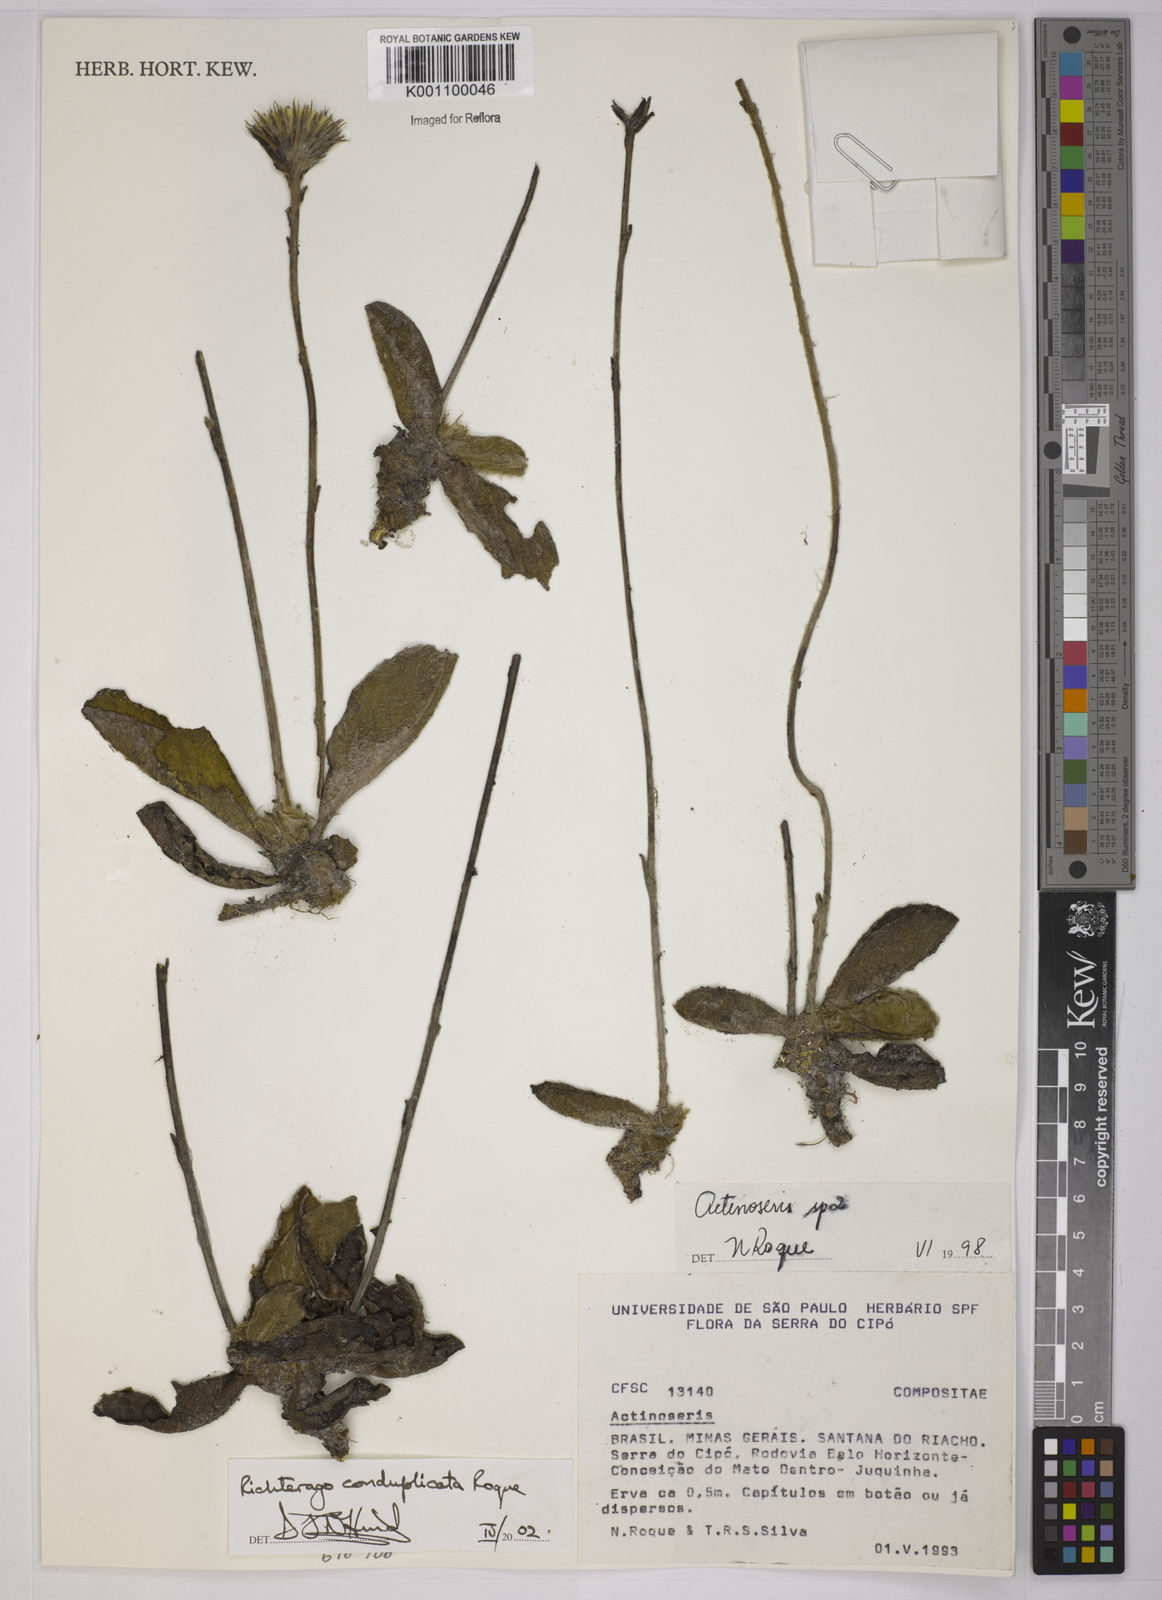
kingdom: Plantae
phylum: Tracheophyta
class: Magnoliopsida
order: Asterales
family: Asteraceae
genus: Richterago
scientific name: Richterago conduplicata
